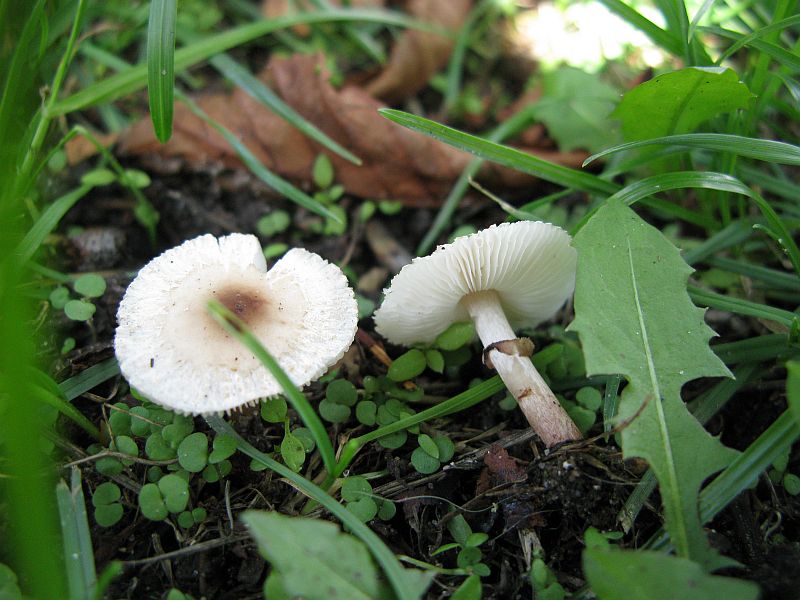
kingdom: Fungi
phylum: Basidiomycota
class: Agaricomycetes
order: Agaricales
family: Agaricaceae
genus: Lepiota
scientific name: Lepiota cristata
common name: stinkende parasolhat
